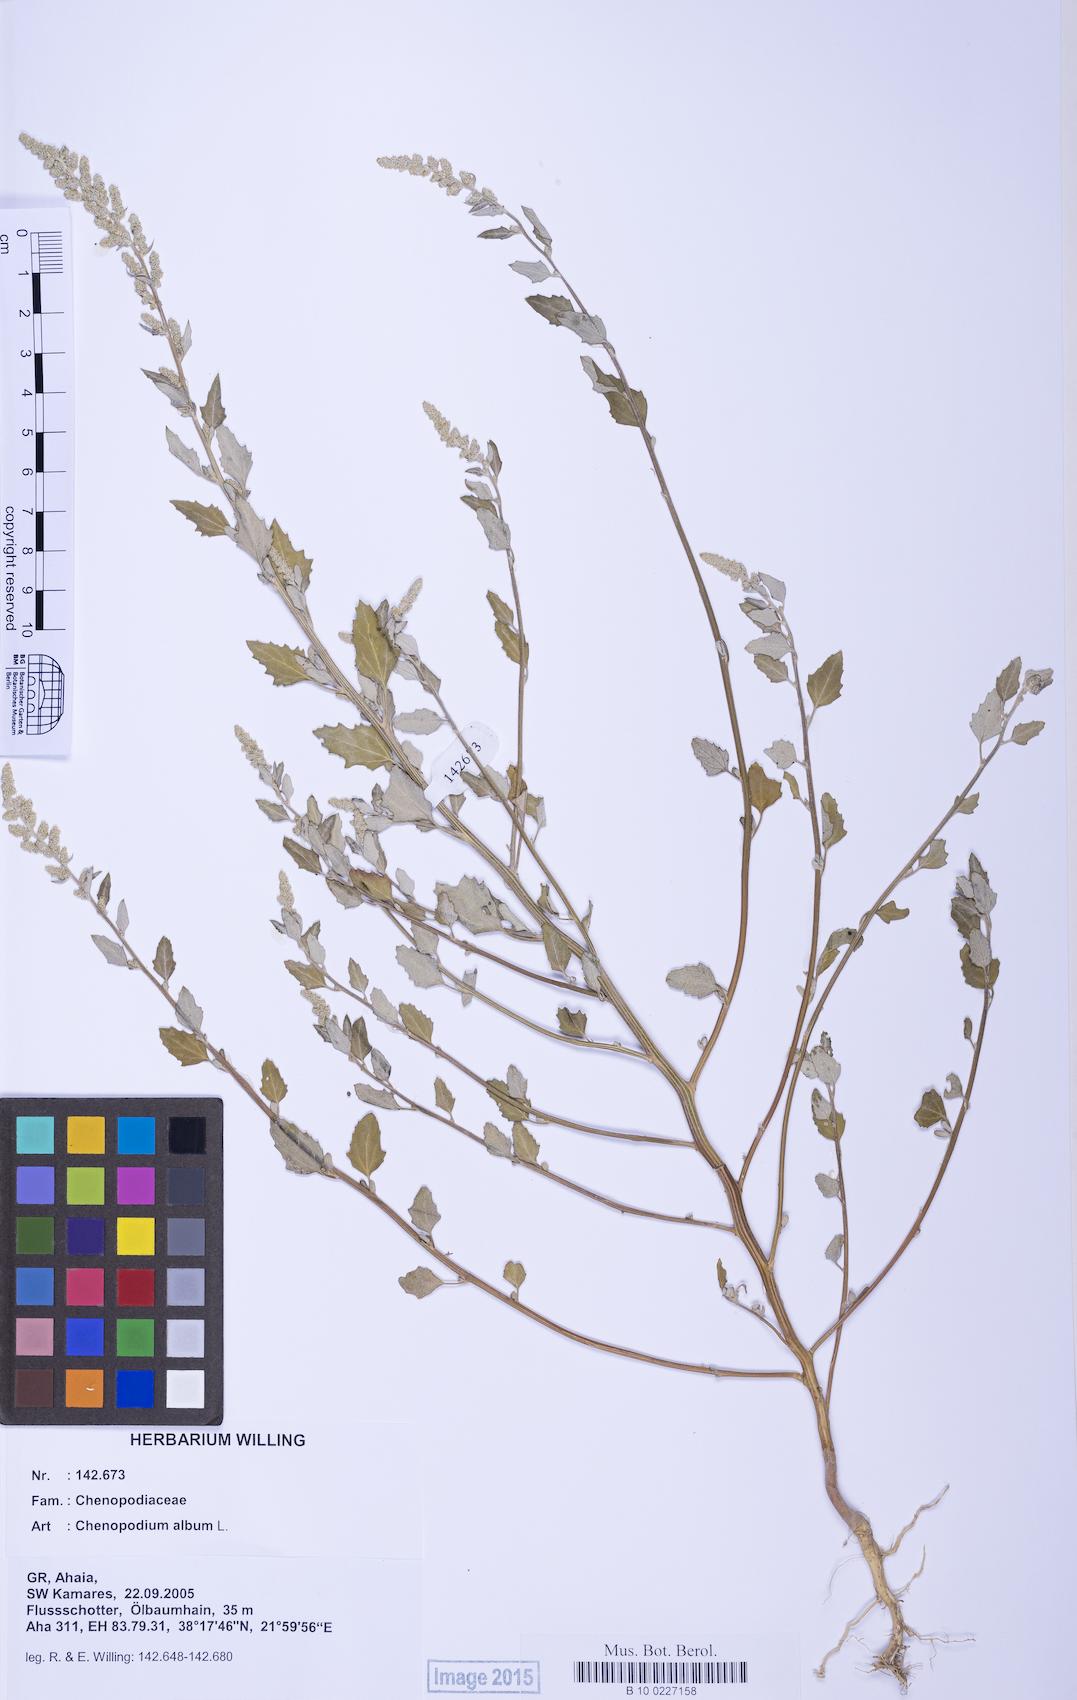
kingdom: Plantae
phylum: Tracheophyta
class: Magnoliopsida
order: Caryophyllales
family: Amaranthaceae
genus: Chenopodium
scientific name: Chenopodium album
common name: Fat-hen
